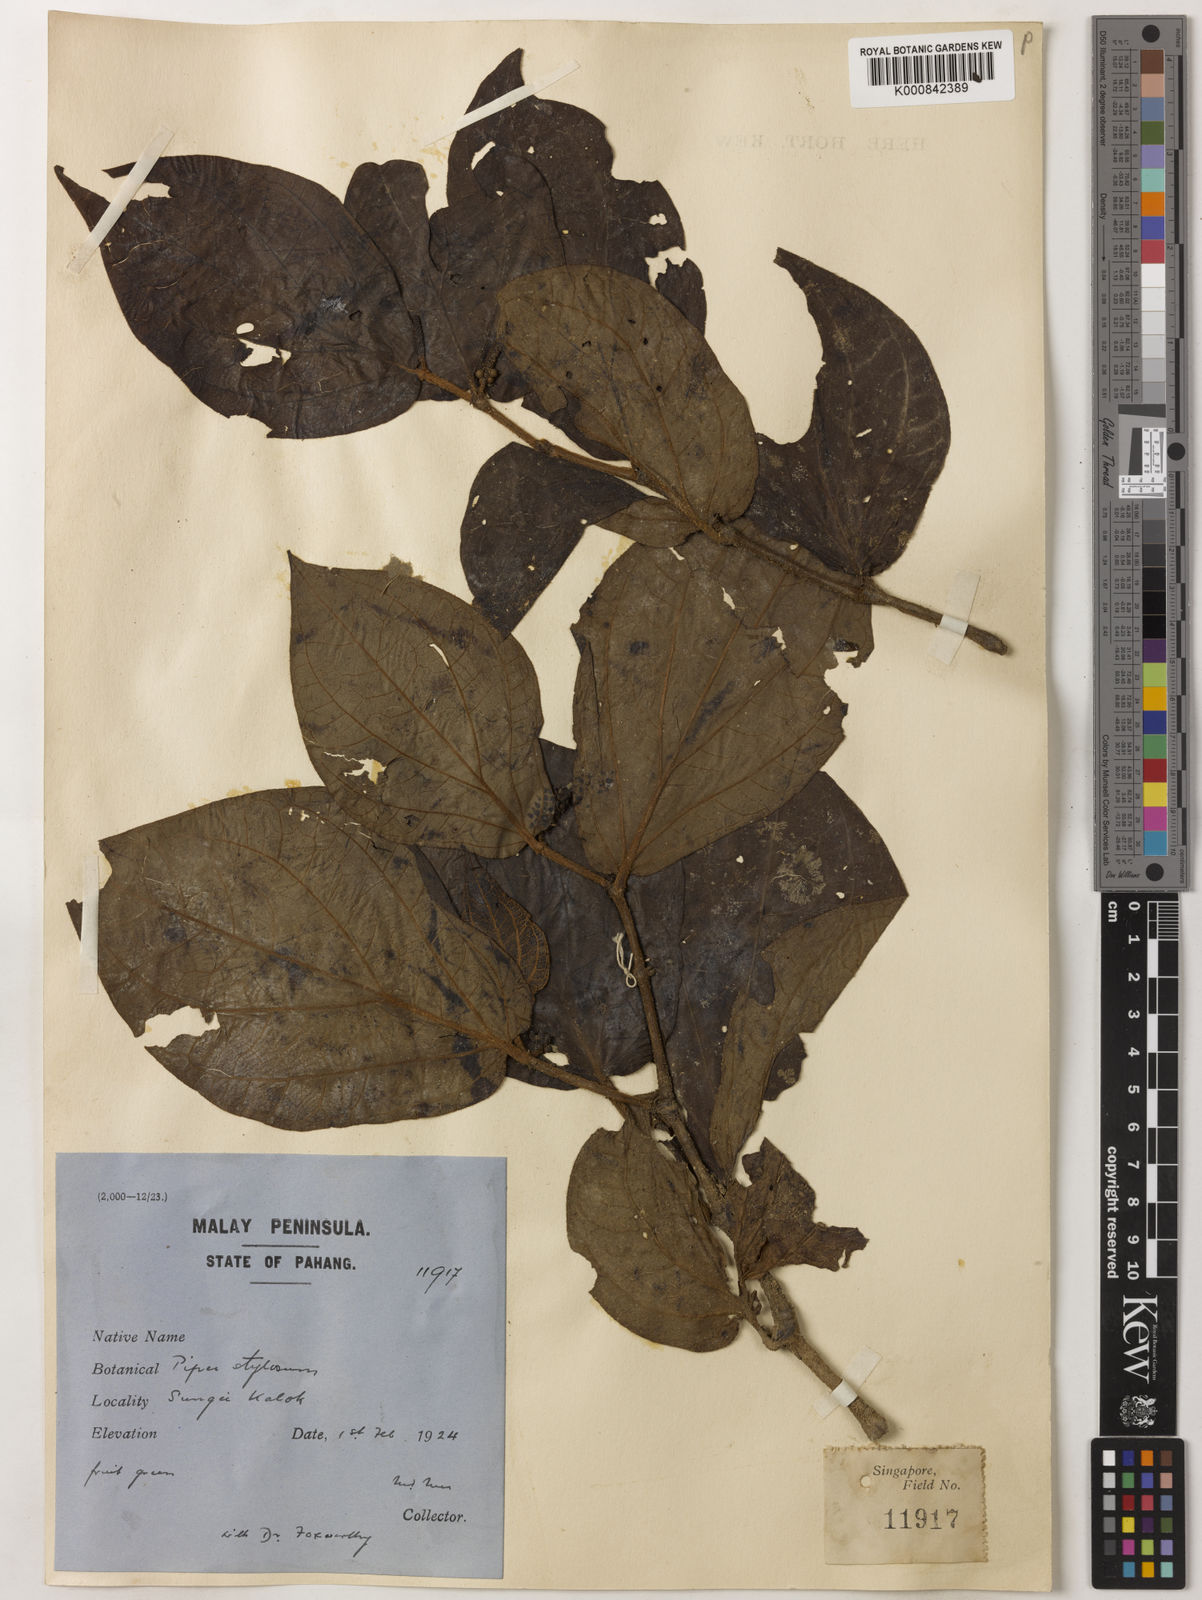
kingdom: Plantae
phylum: Tracheophyta
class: Magnoliopsida
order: Piperales
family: Piperaceae
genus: Piper
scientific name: Piper rostratum
